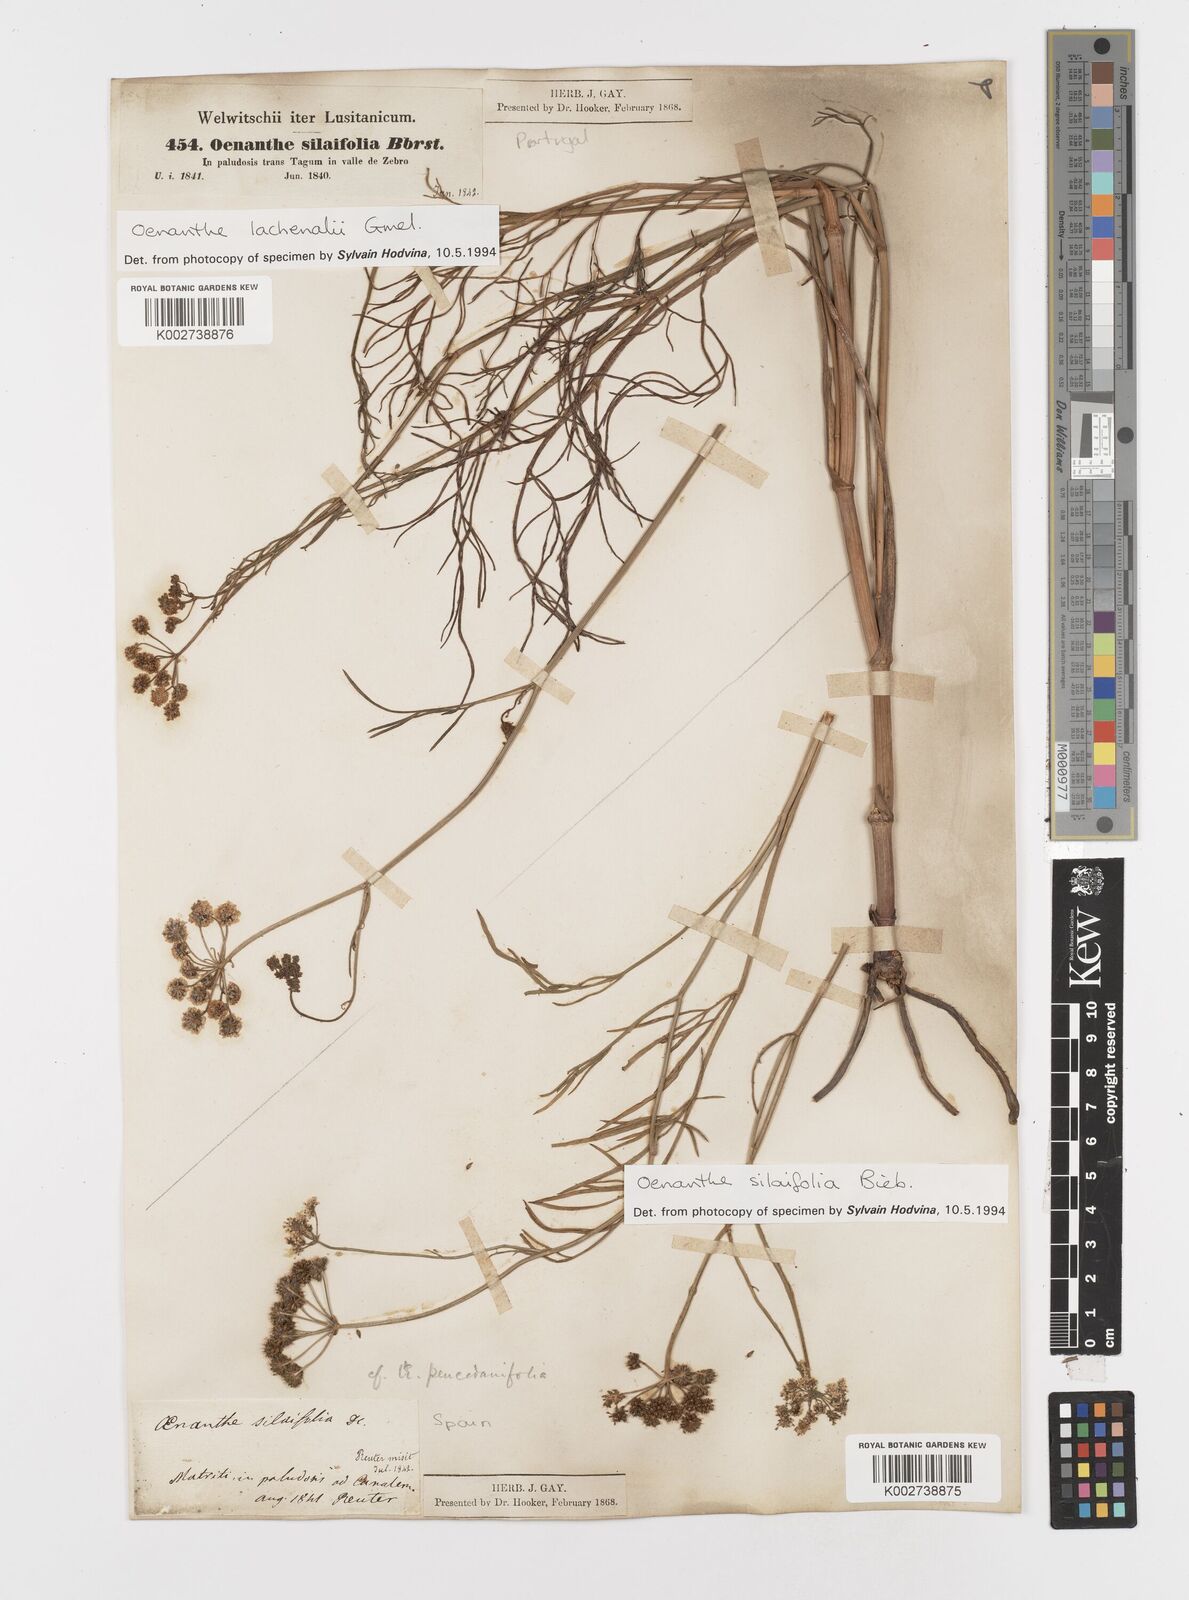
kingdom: Plantae
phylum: Tracheophyta
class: Magnoliopsida
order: Apiales
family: Apiaceae
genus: Oenanthe
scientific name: Oenanthe silaifolia
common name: Narrow-leaved water-dropwort
